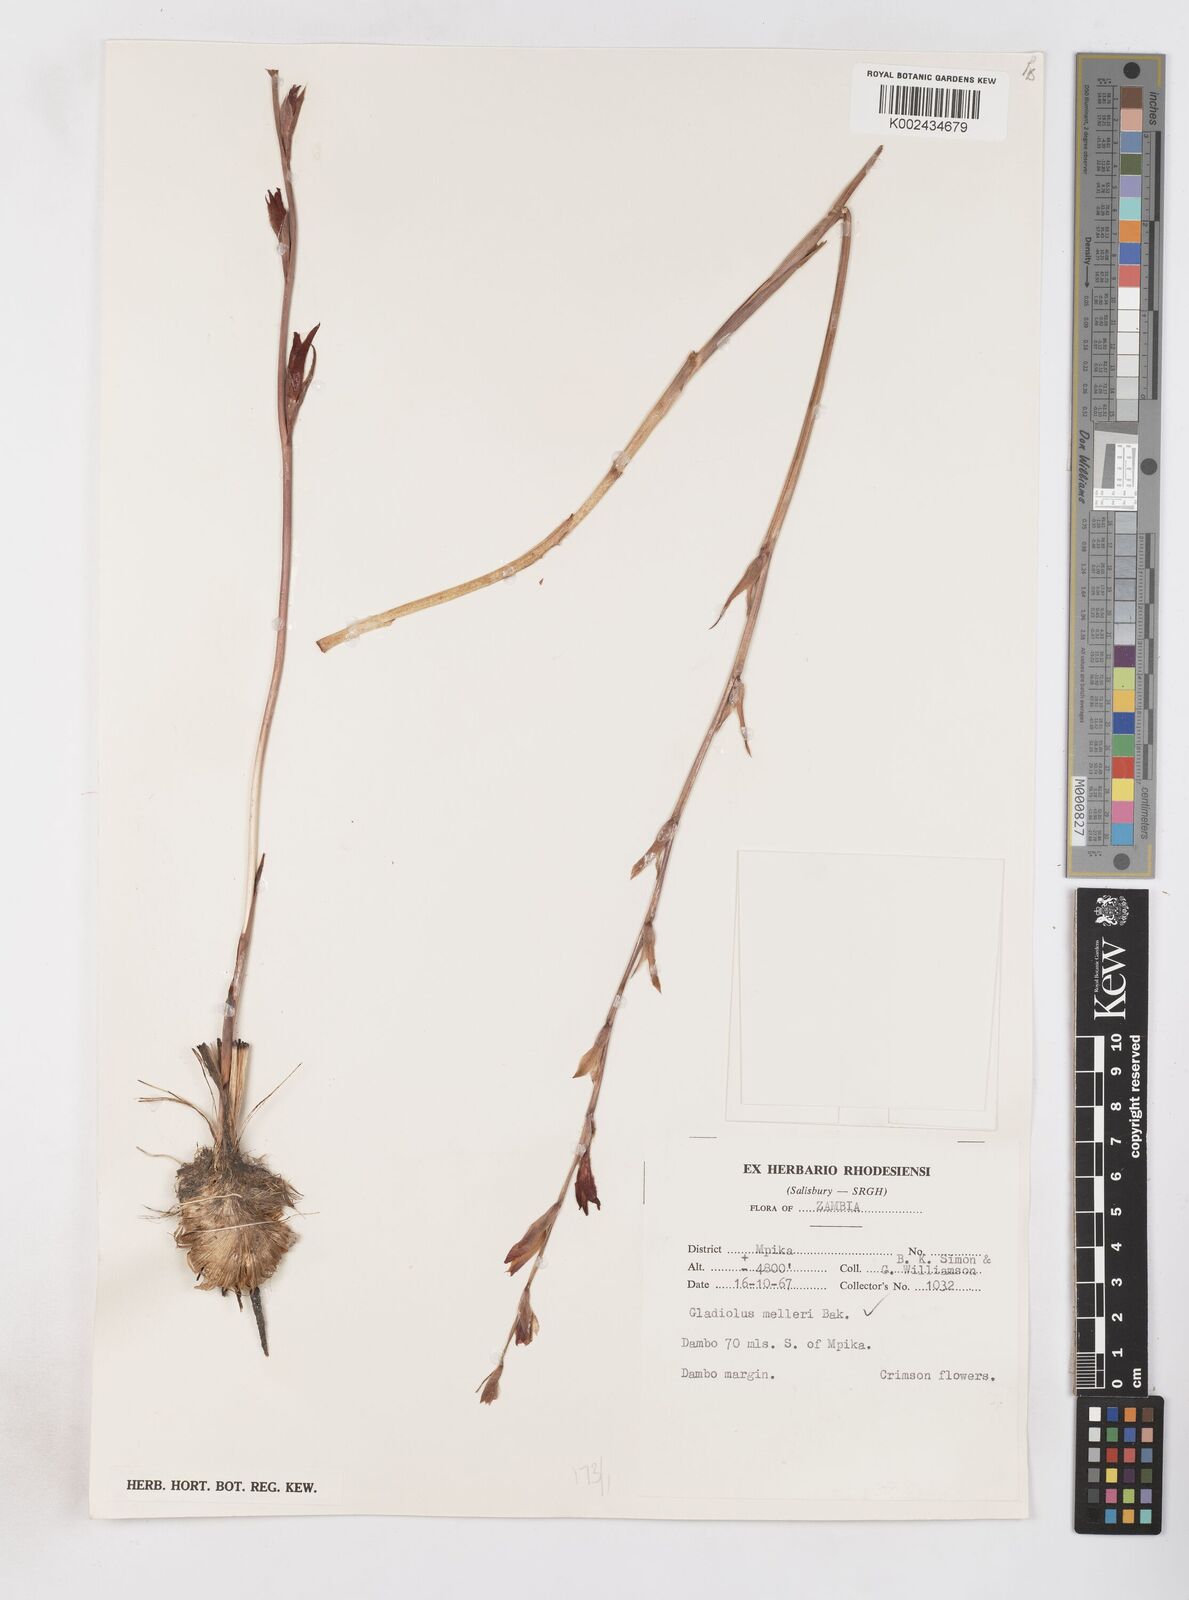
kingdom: Plantae
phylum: Tracheophyta
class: Liliopsida
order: Asparagales
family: Iridaceae
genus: Gladiolus
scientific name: Gladiolus melleri
